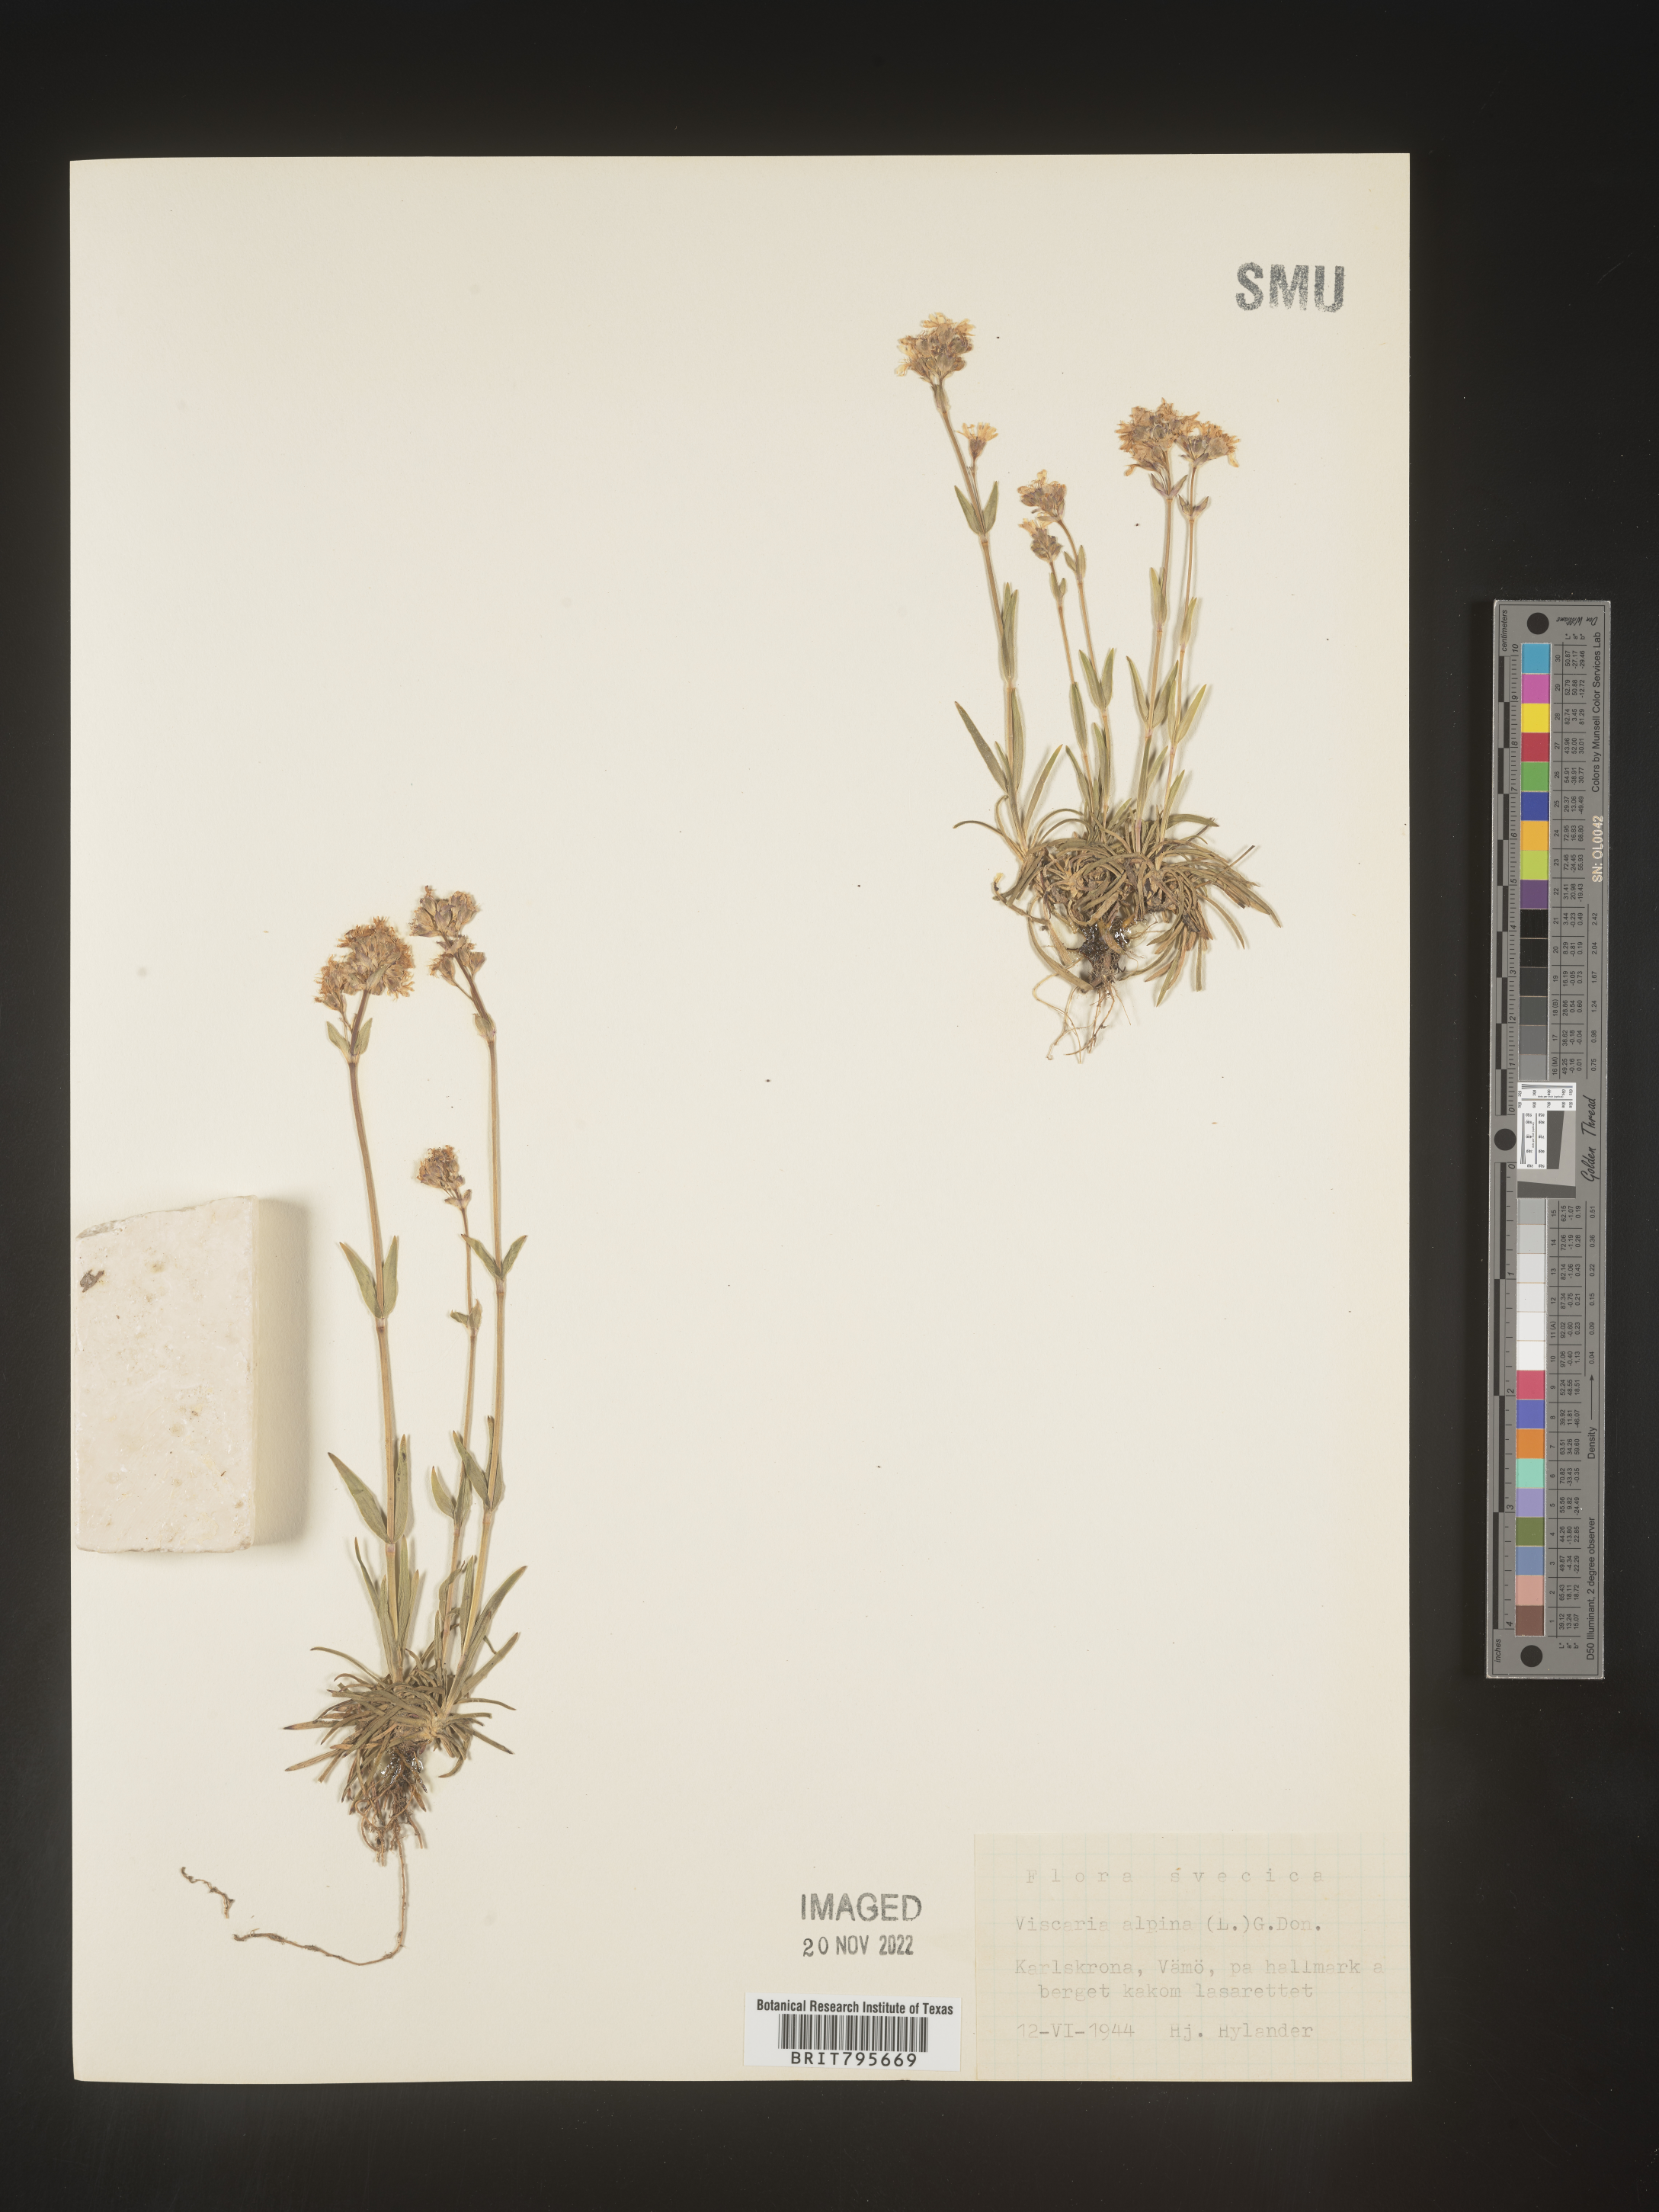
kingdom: Plantae
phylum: Tracheophyta
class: Magnoliopsida
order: Caryophyllales
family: Caryophyllaceae
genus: Viscaria
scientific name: Viscaria
